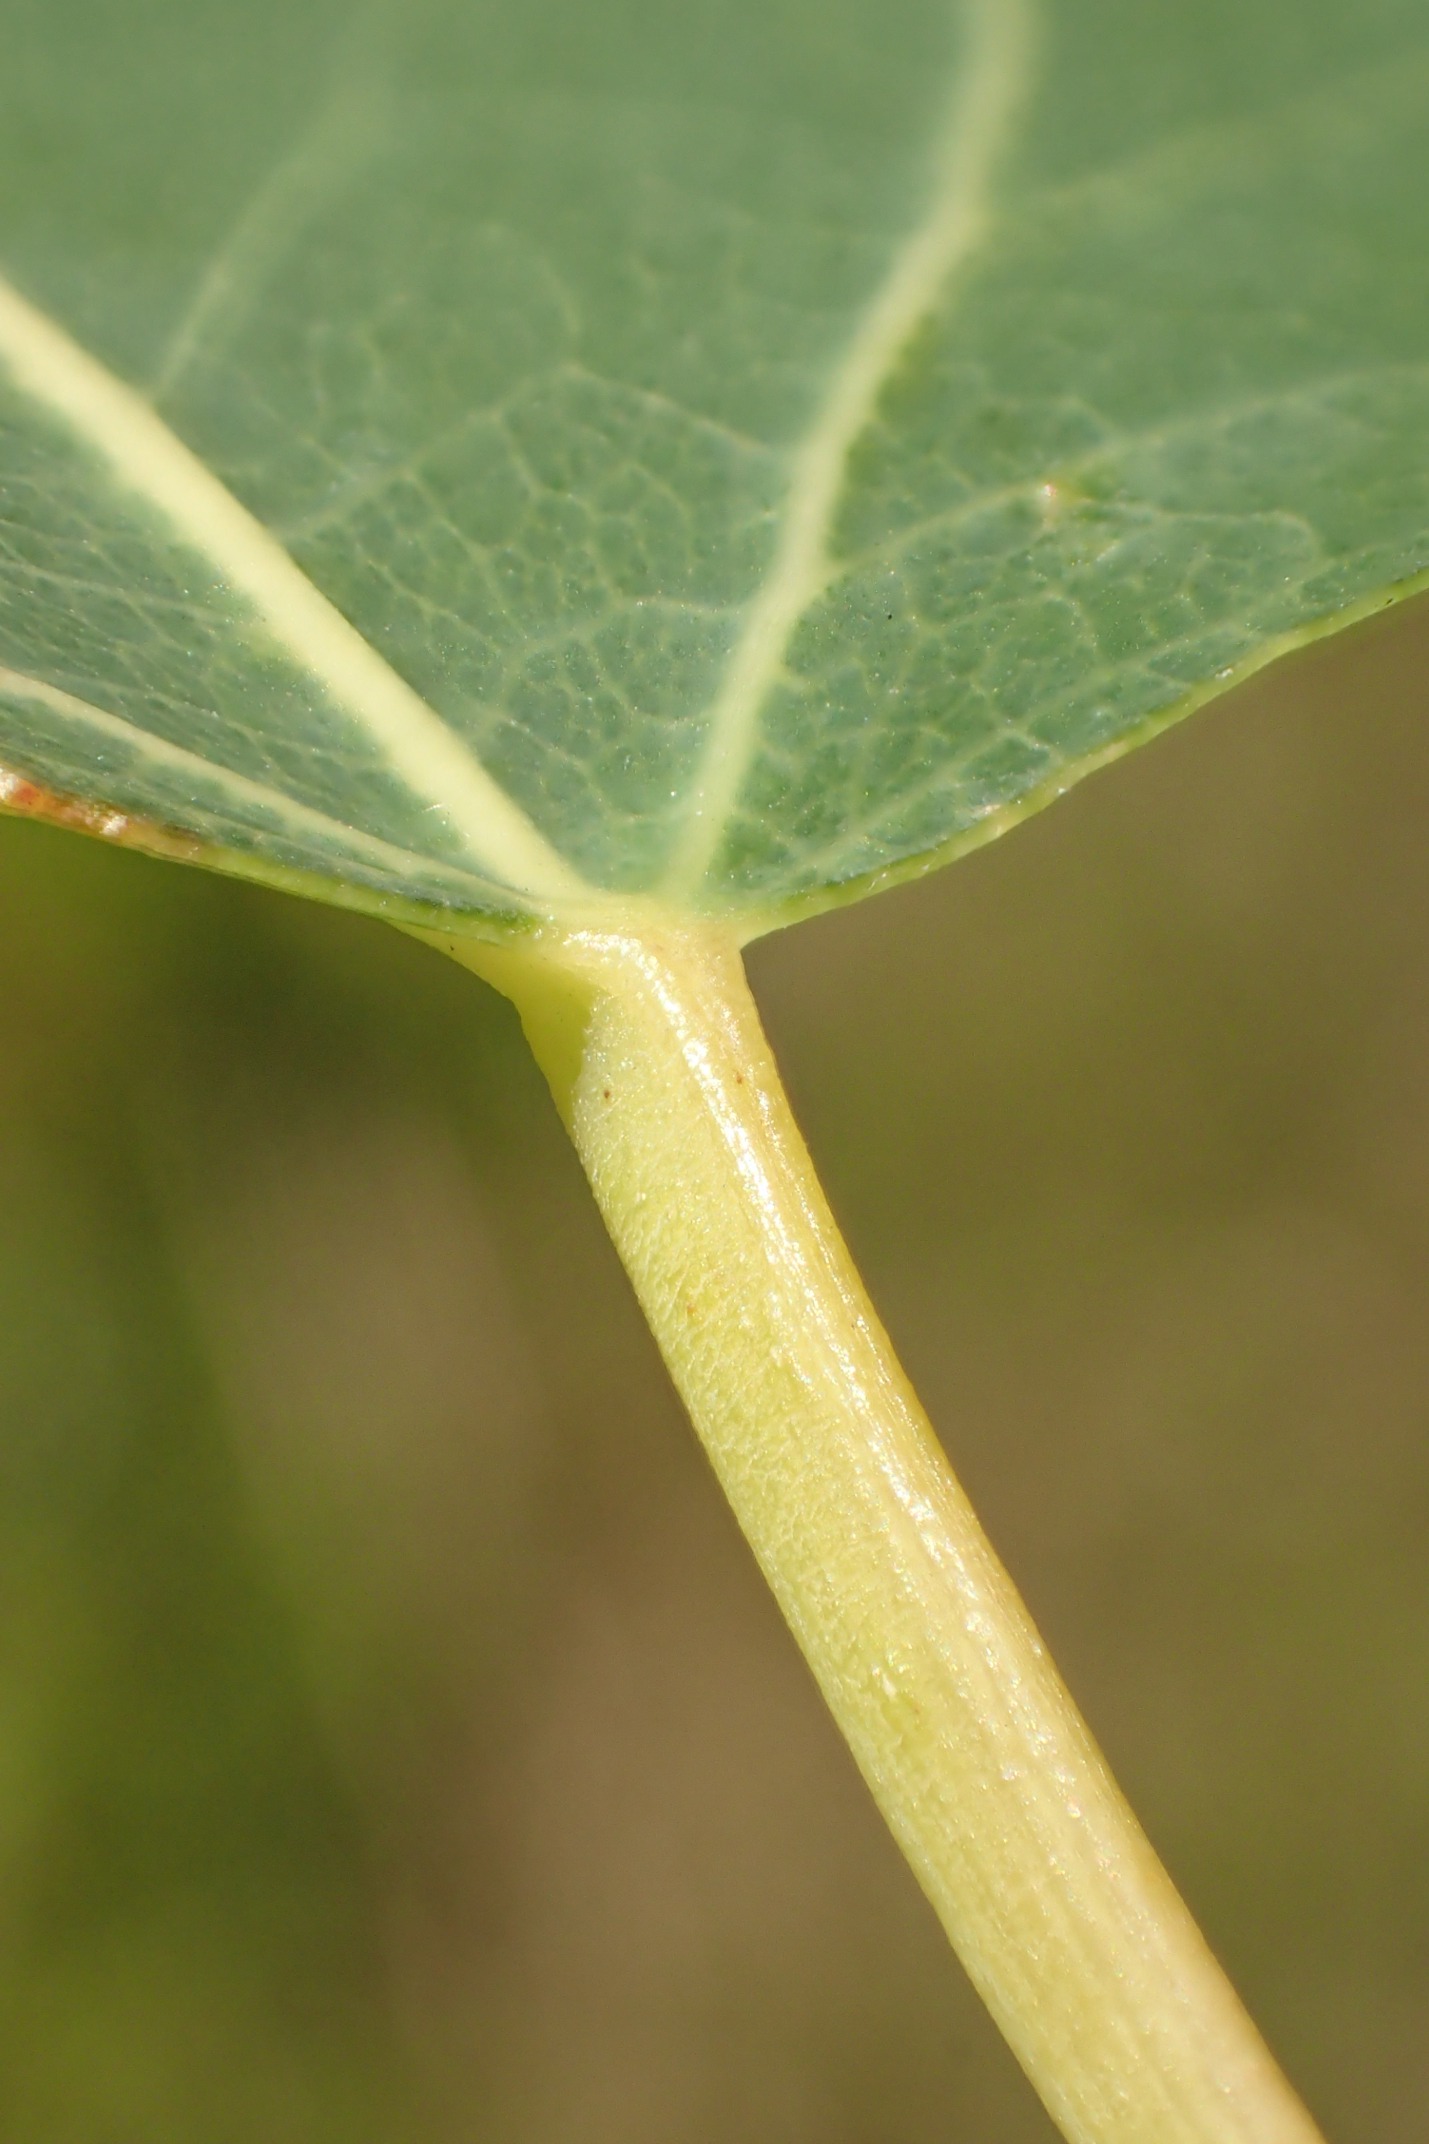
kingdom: Plantae
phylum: Tracheophyta
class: Magnoliopsida
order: Malpighiales
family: Salicaceae
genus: Populus
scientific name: Populus tremula
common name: Bævreasp
